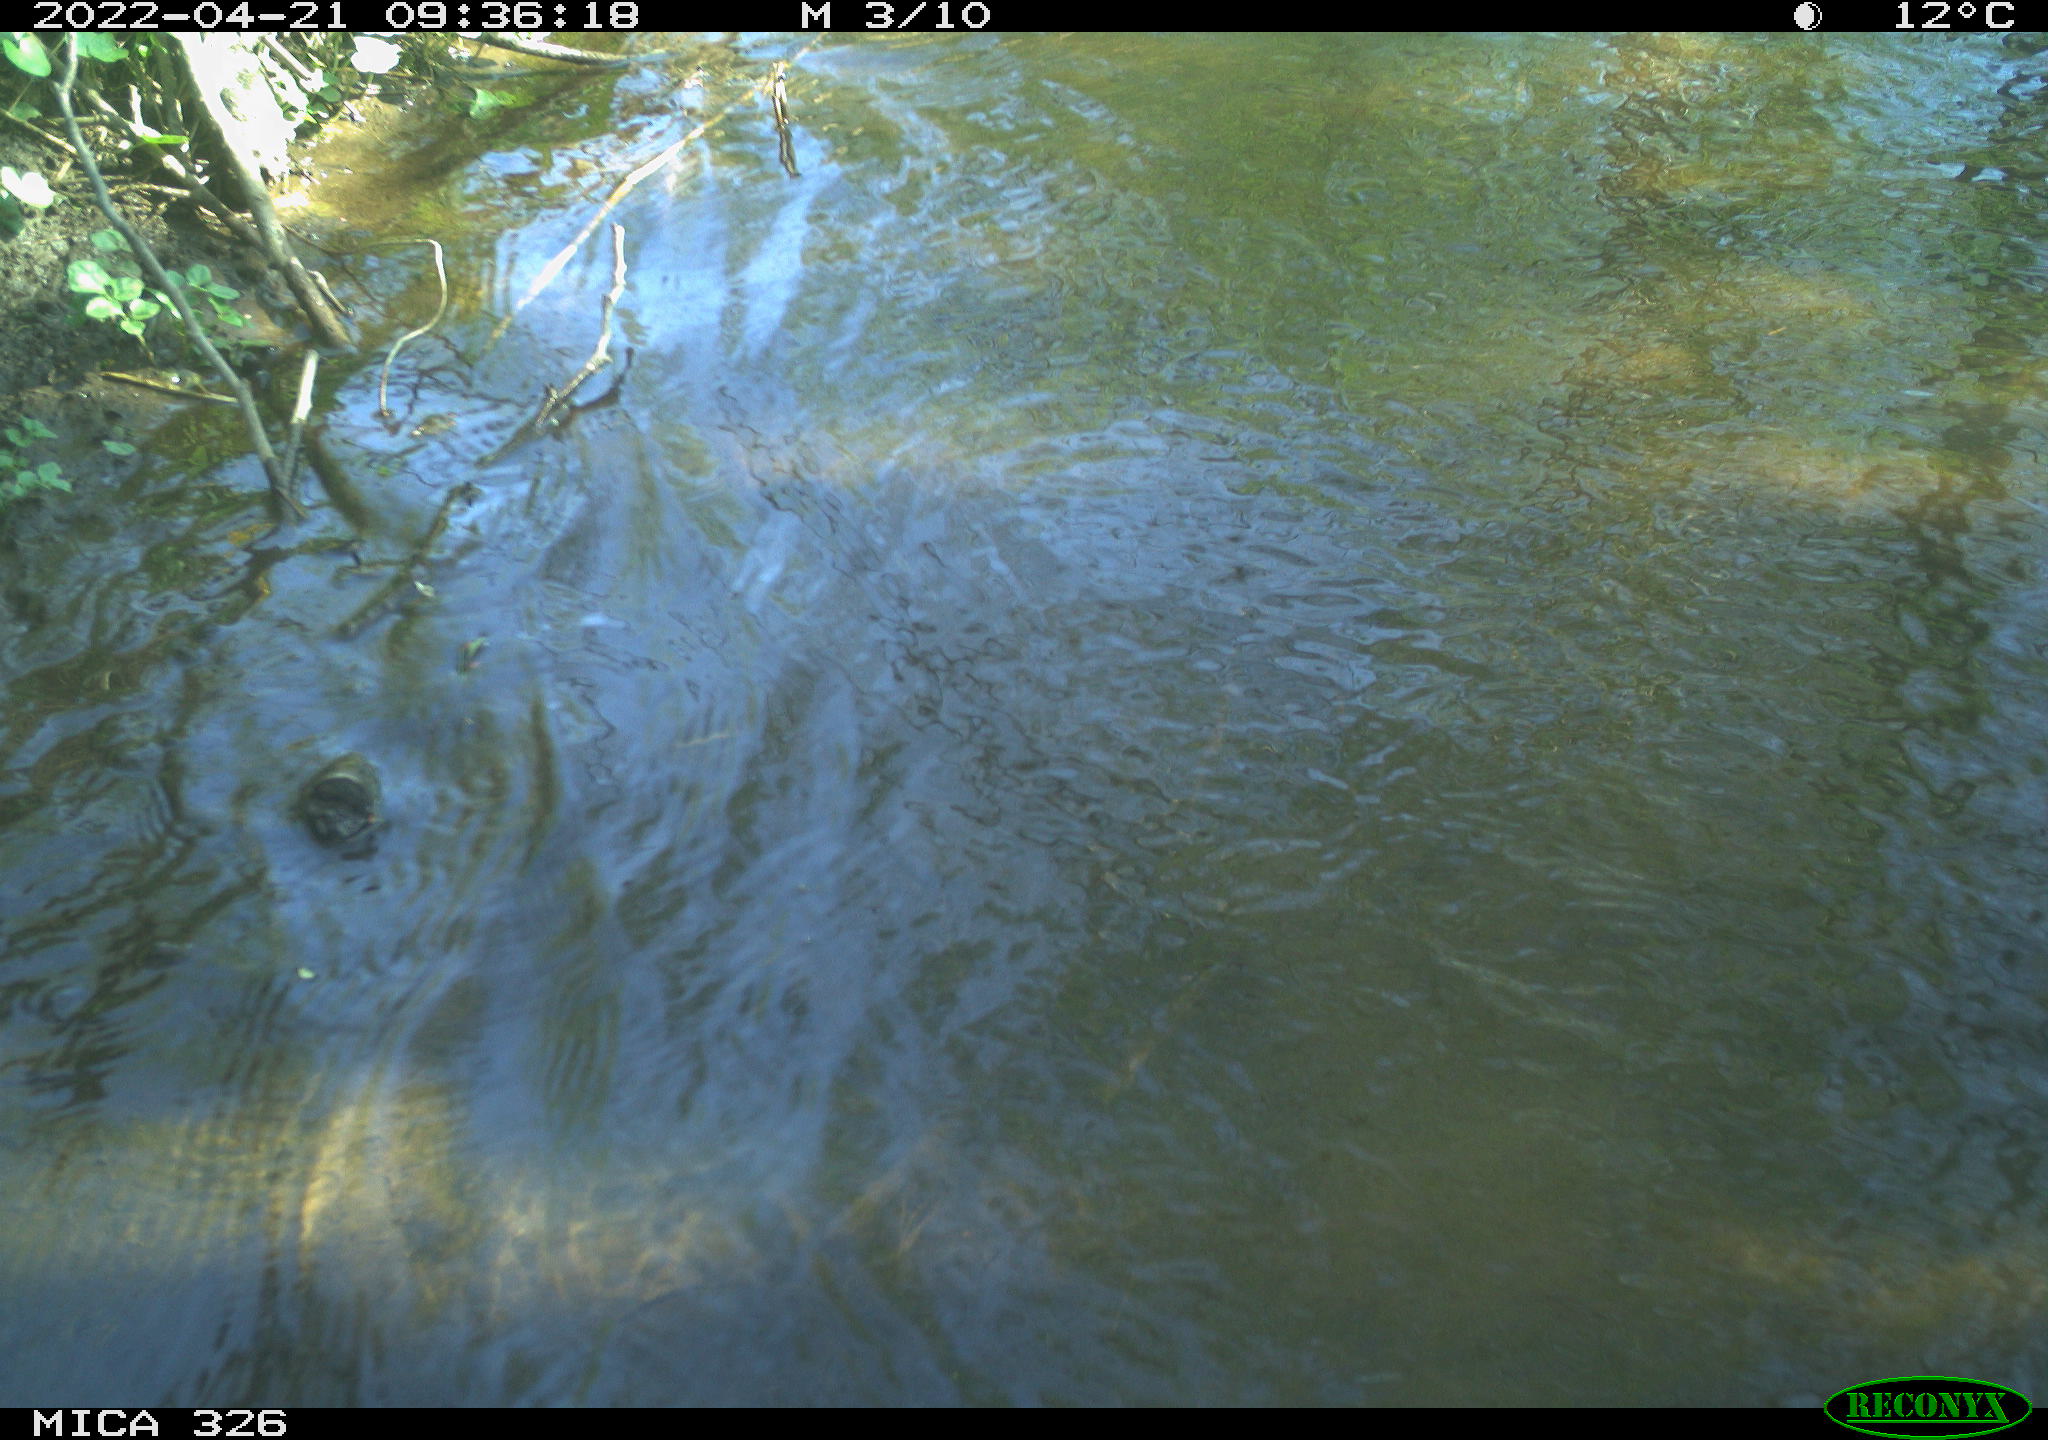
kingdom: Animalia
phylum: Chordata
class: Mammalia
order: Rodentia
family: Cricetidae
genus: Ondatra
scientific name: Ondatra zibethicus
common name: Muskrat
